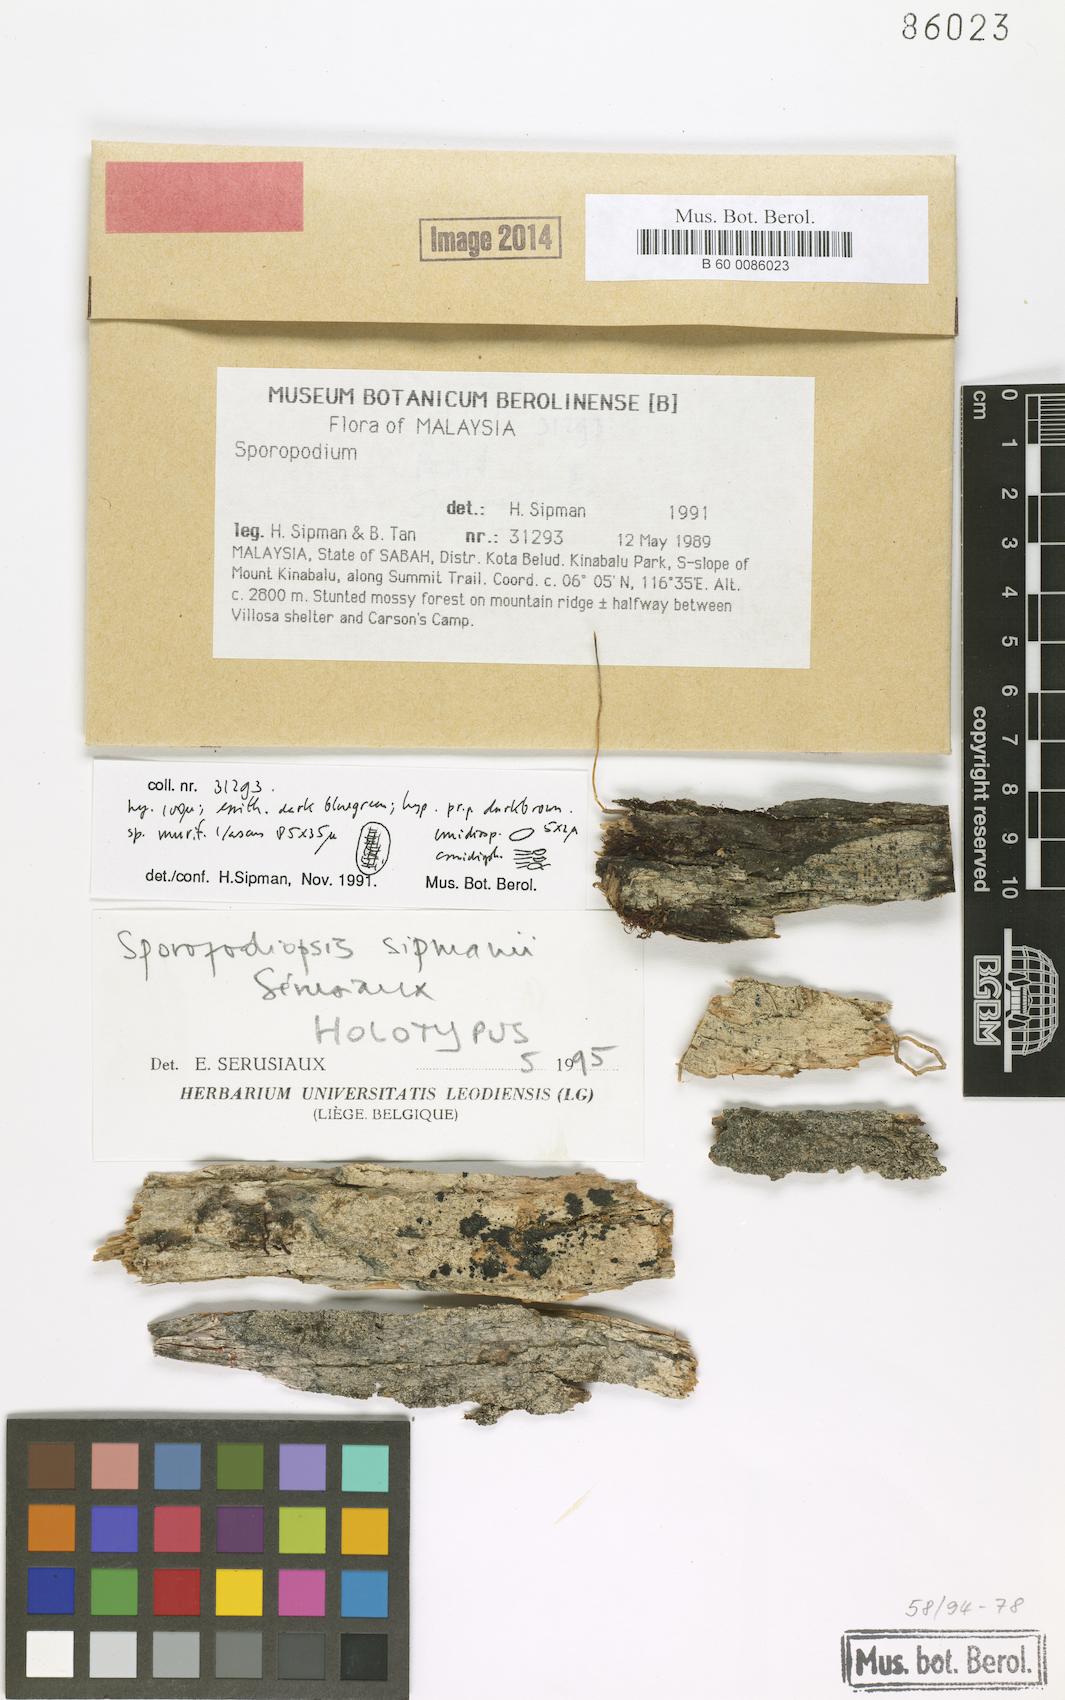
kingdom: Fungi
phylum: Ascomycota
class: Lecanoromycetes
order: Lecanorales
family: Byssolomataceae
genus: Sporopodiopsis
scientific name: Sporopodiopsis sipmanii
